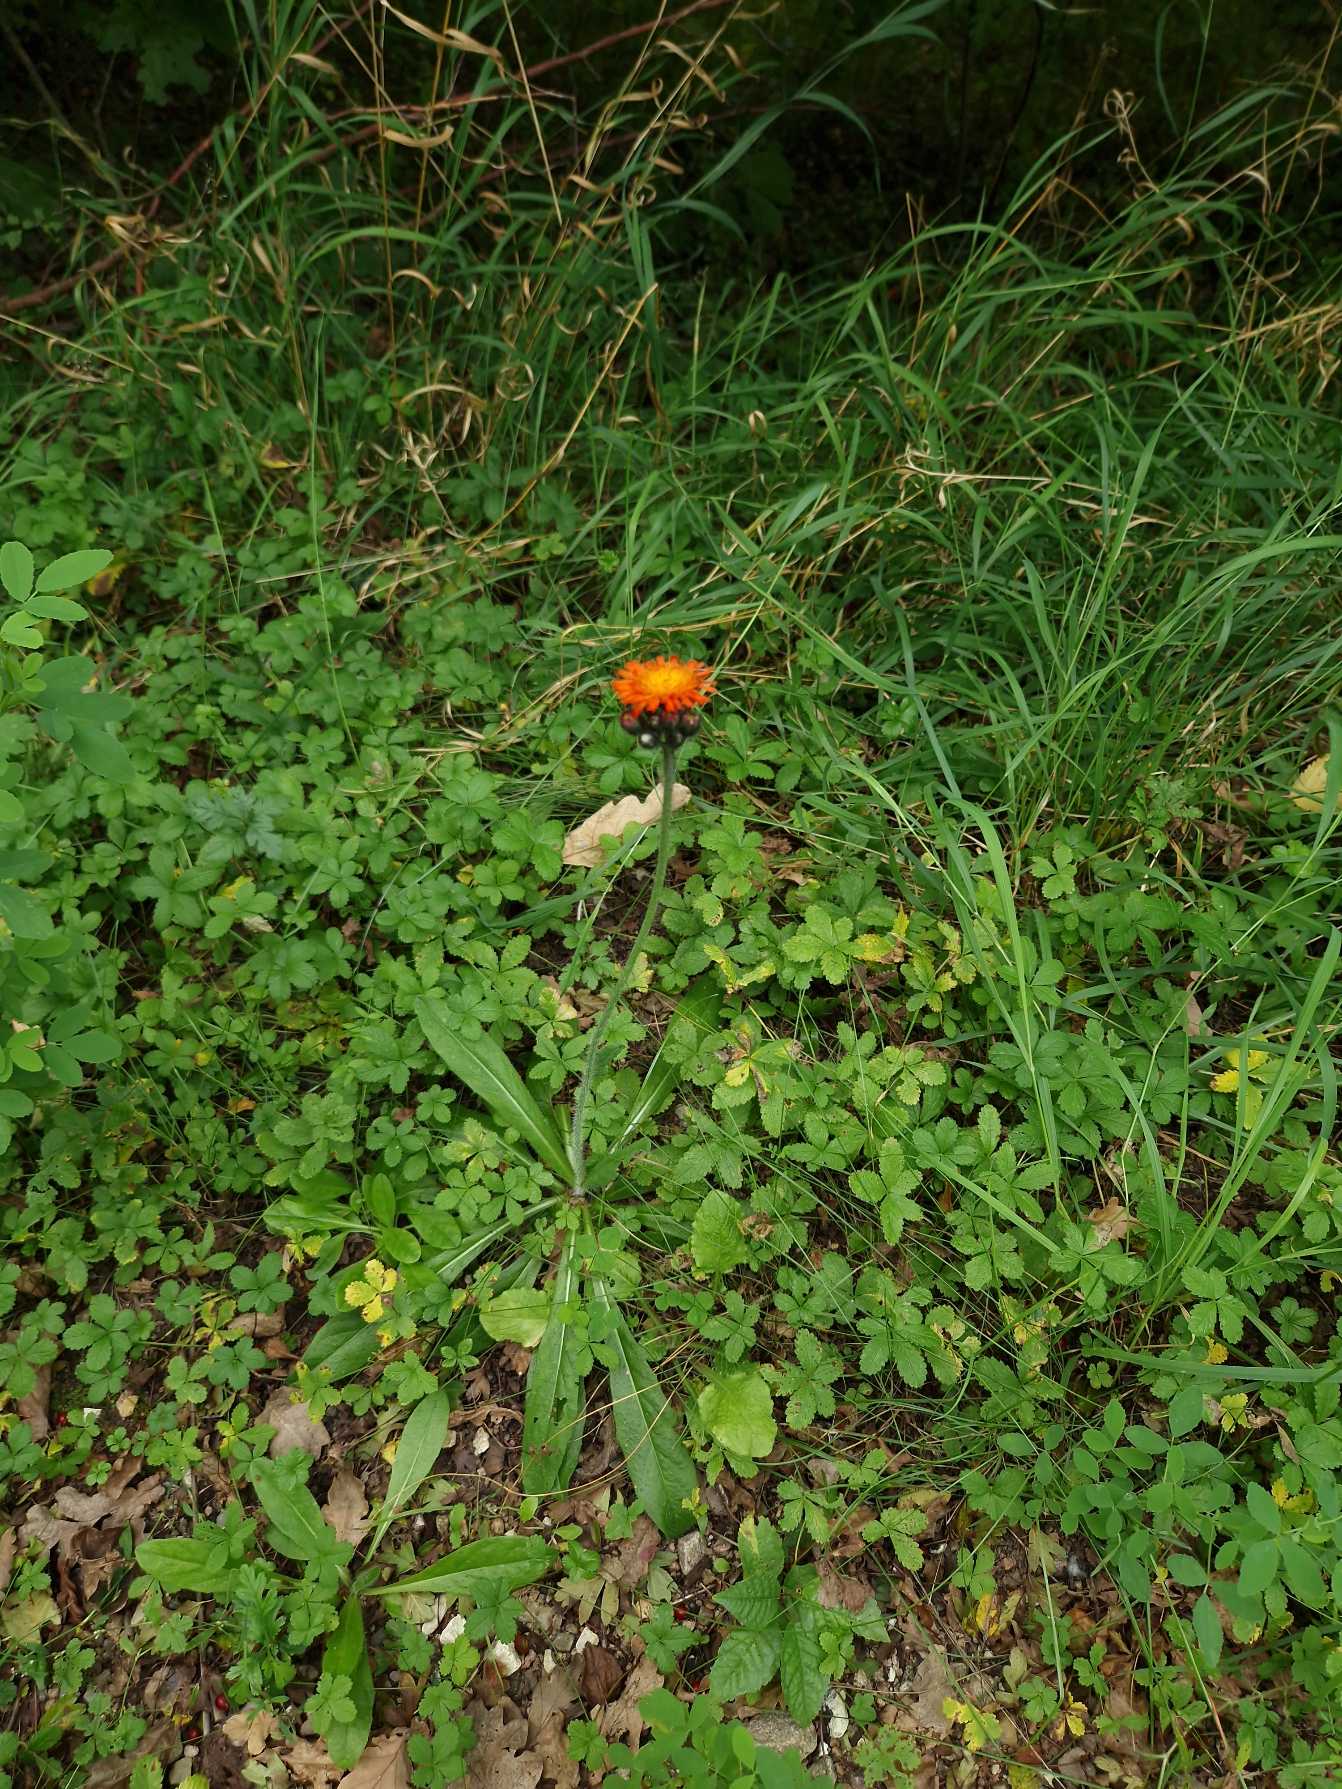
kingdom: Plantae
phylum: Tracheophyta
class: Magnoliopsida
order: Asterales
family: Asteraceae
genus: Pilosella
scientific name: Pilosella aurantiaca
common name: Pomerans-høgeurt
